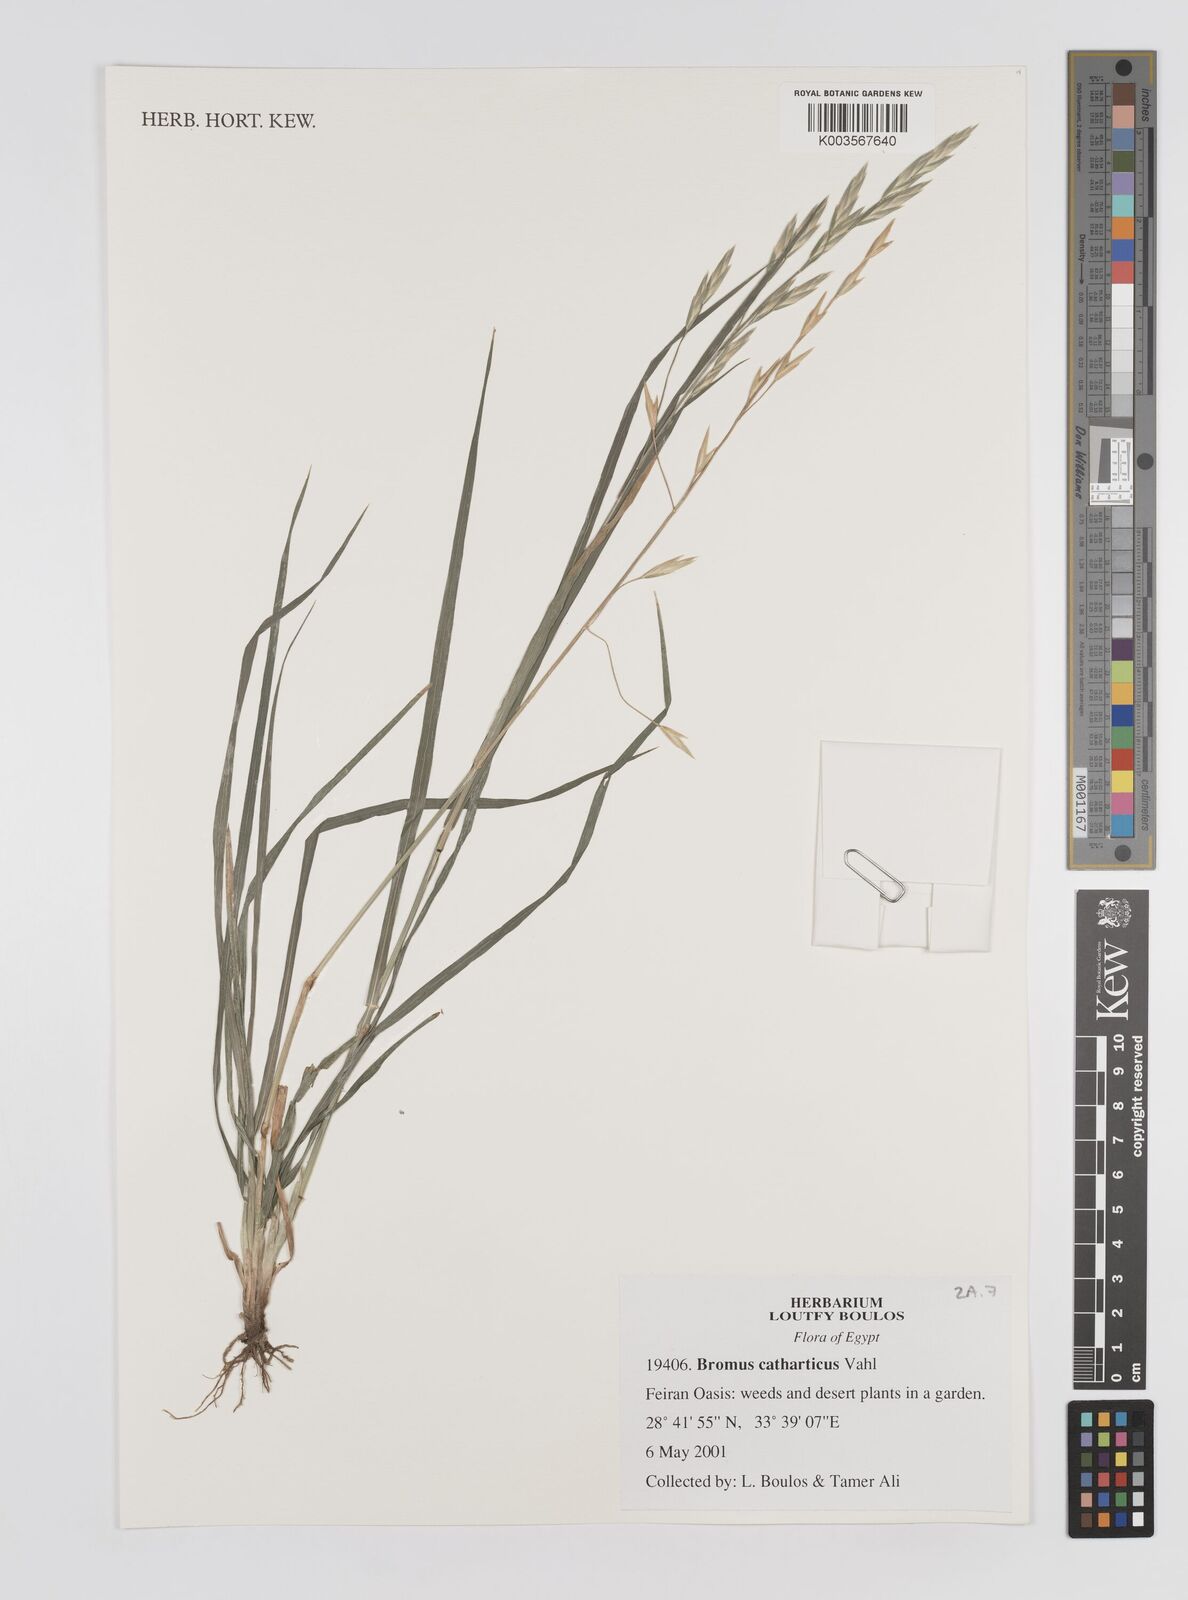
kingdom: Plantae
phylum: Tracheophyta
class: Liliopsida
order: Poales
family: Poaceae
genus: Bromus
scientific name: Bromus catharticus
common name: Rescuegrass
